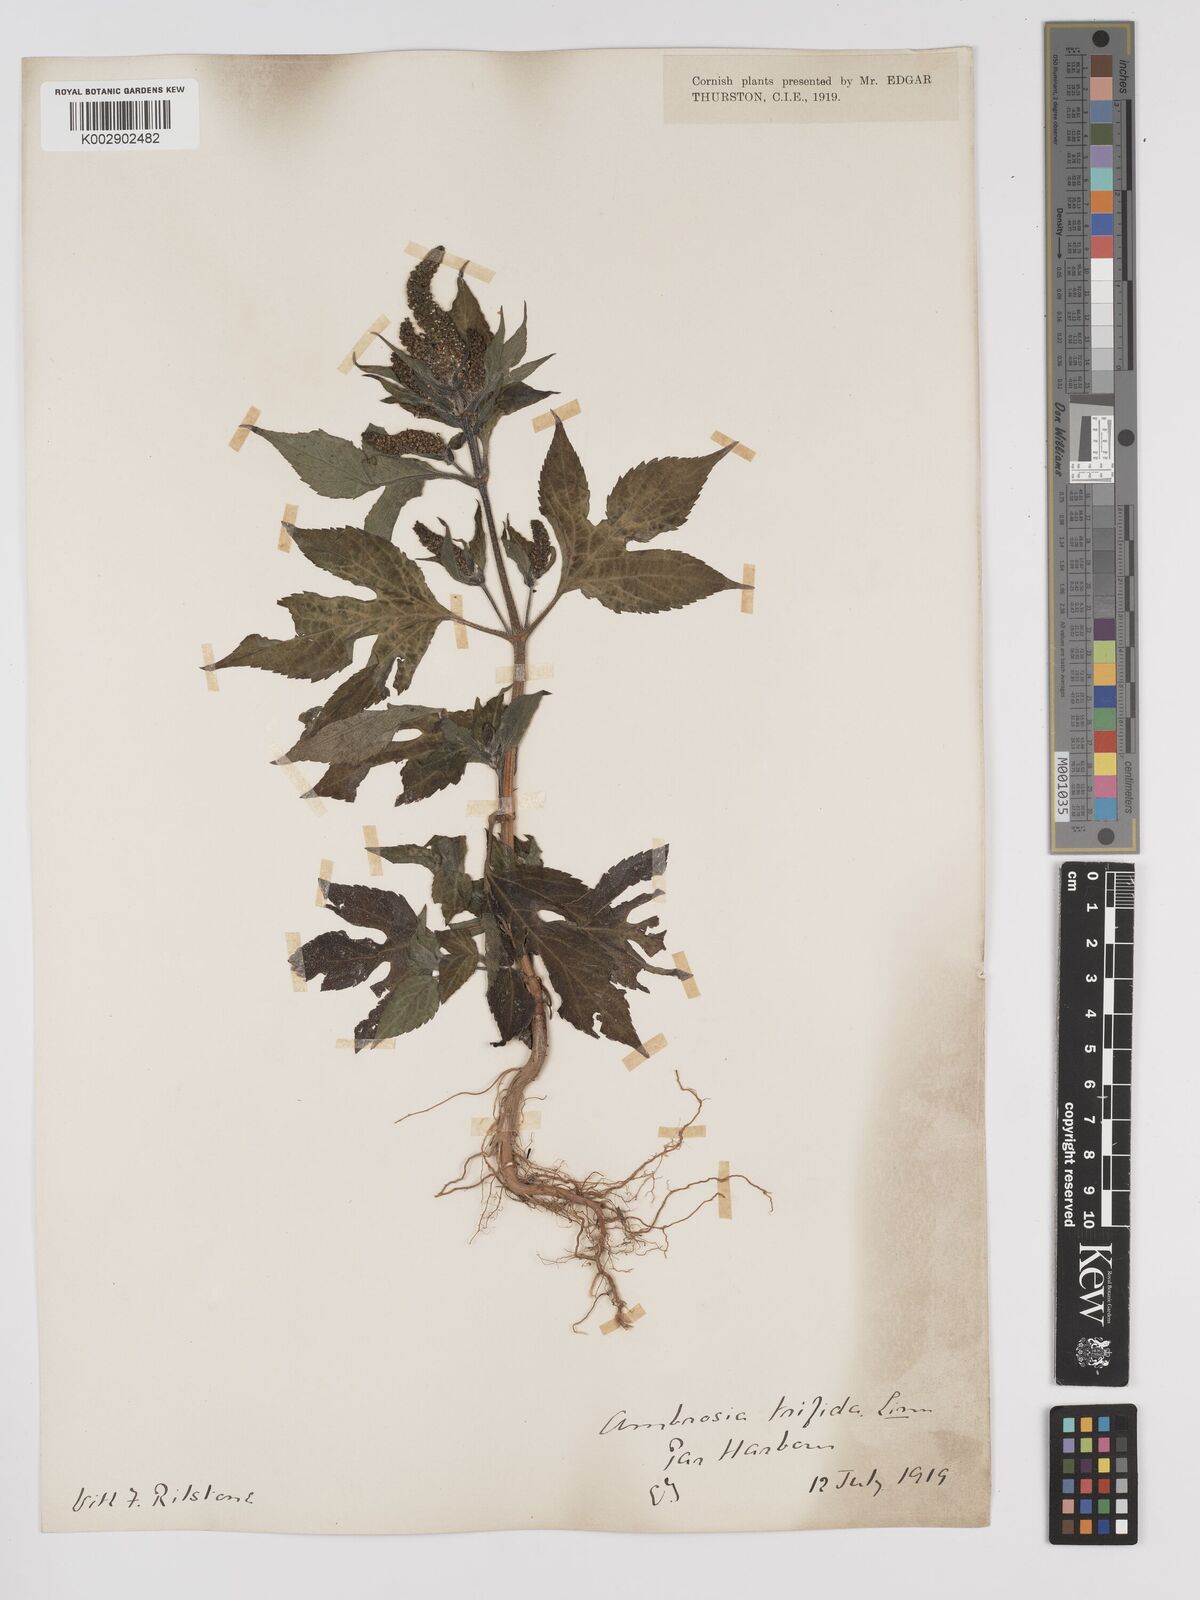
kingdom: Plantae
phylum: Tracheophyta
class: Magnoliopsida
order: Asterales
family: Asteraceae
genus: Ambrosia
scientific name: Ambrosia trifida
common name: Giant ragweed
